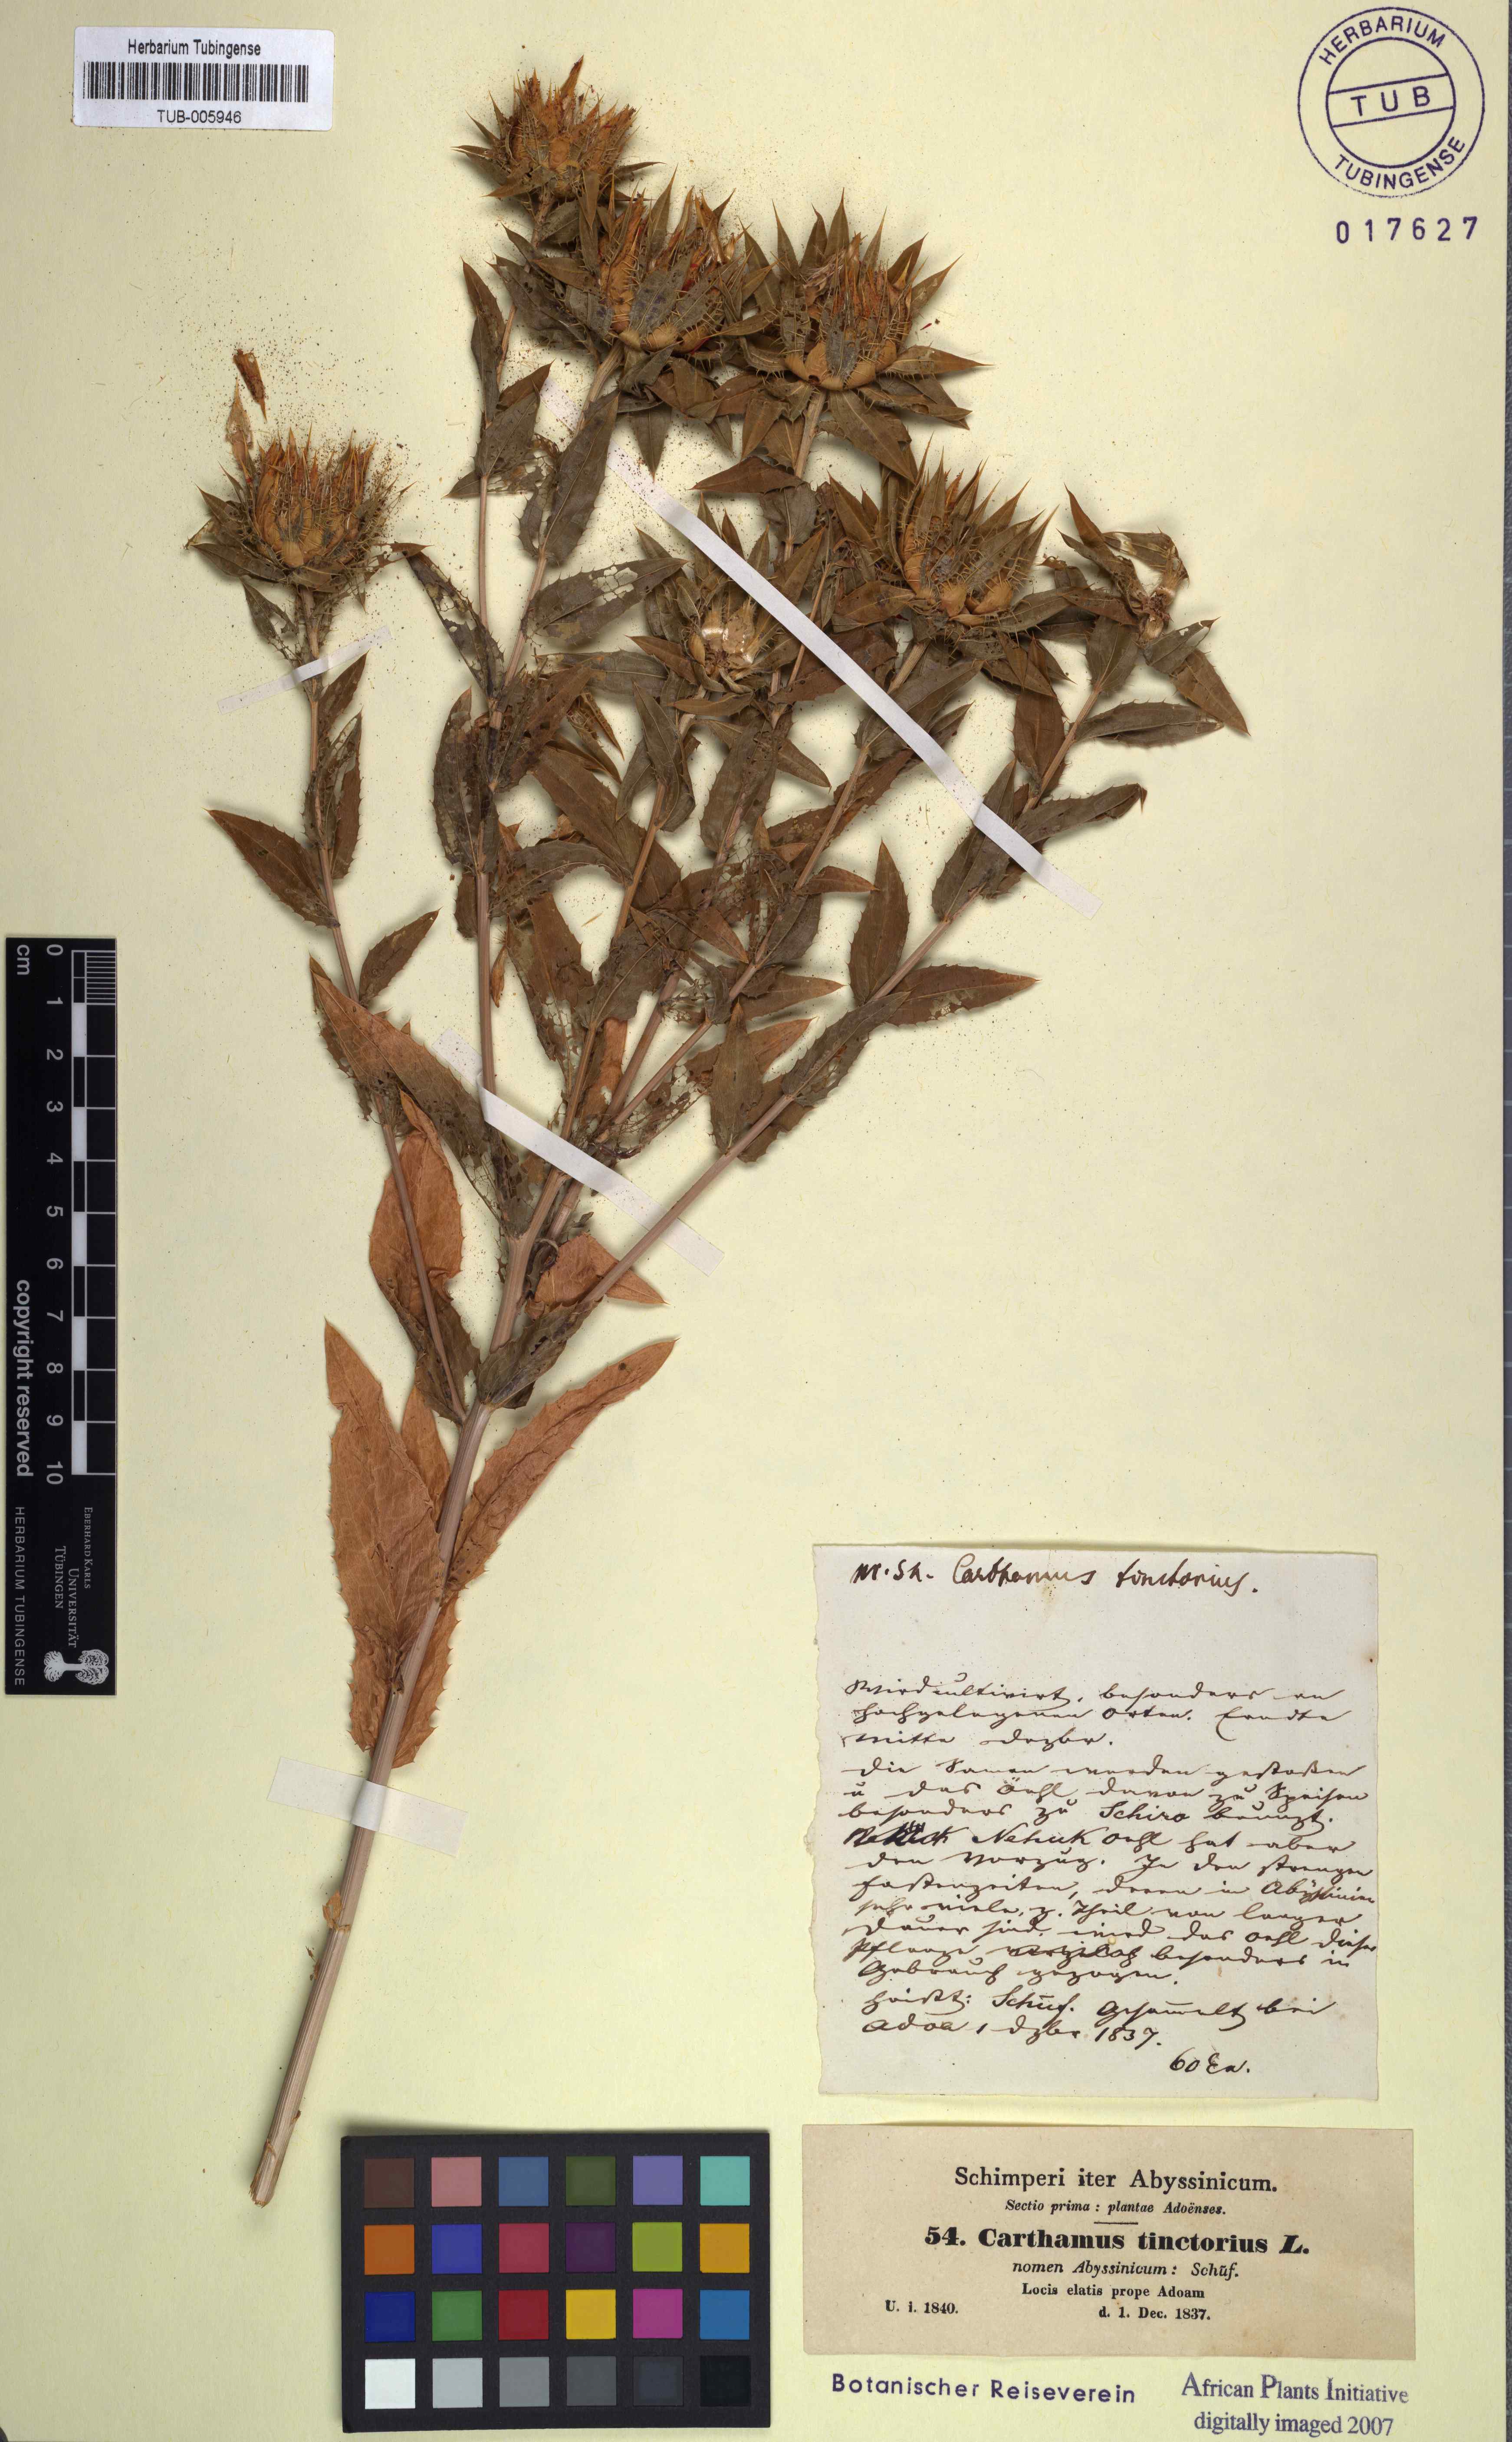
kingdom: Plantae
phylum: Tracheophyta
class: Magnoliopsida
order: Asterales
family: Asteraceae
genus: Carthamus
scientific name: Carthamus tinctorius
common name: Safflower
